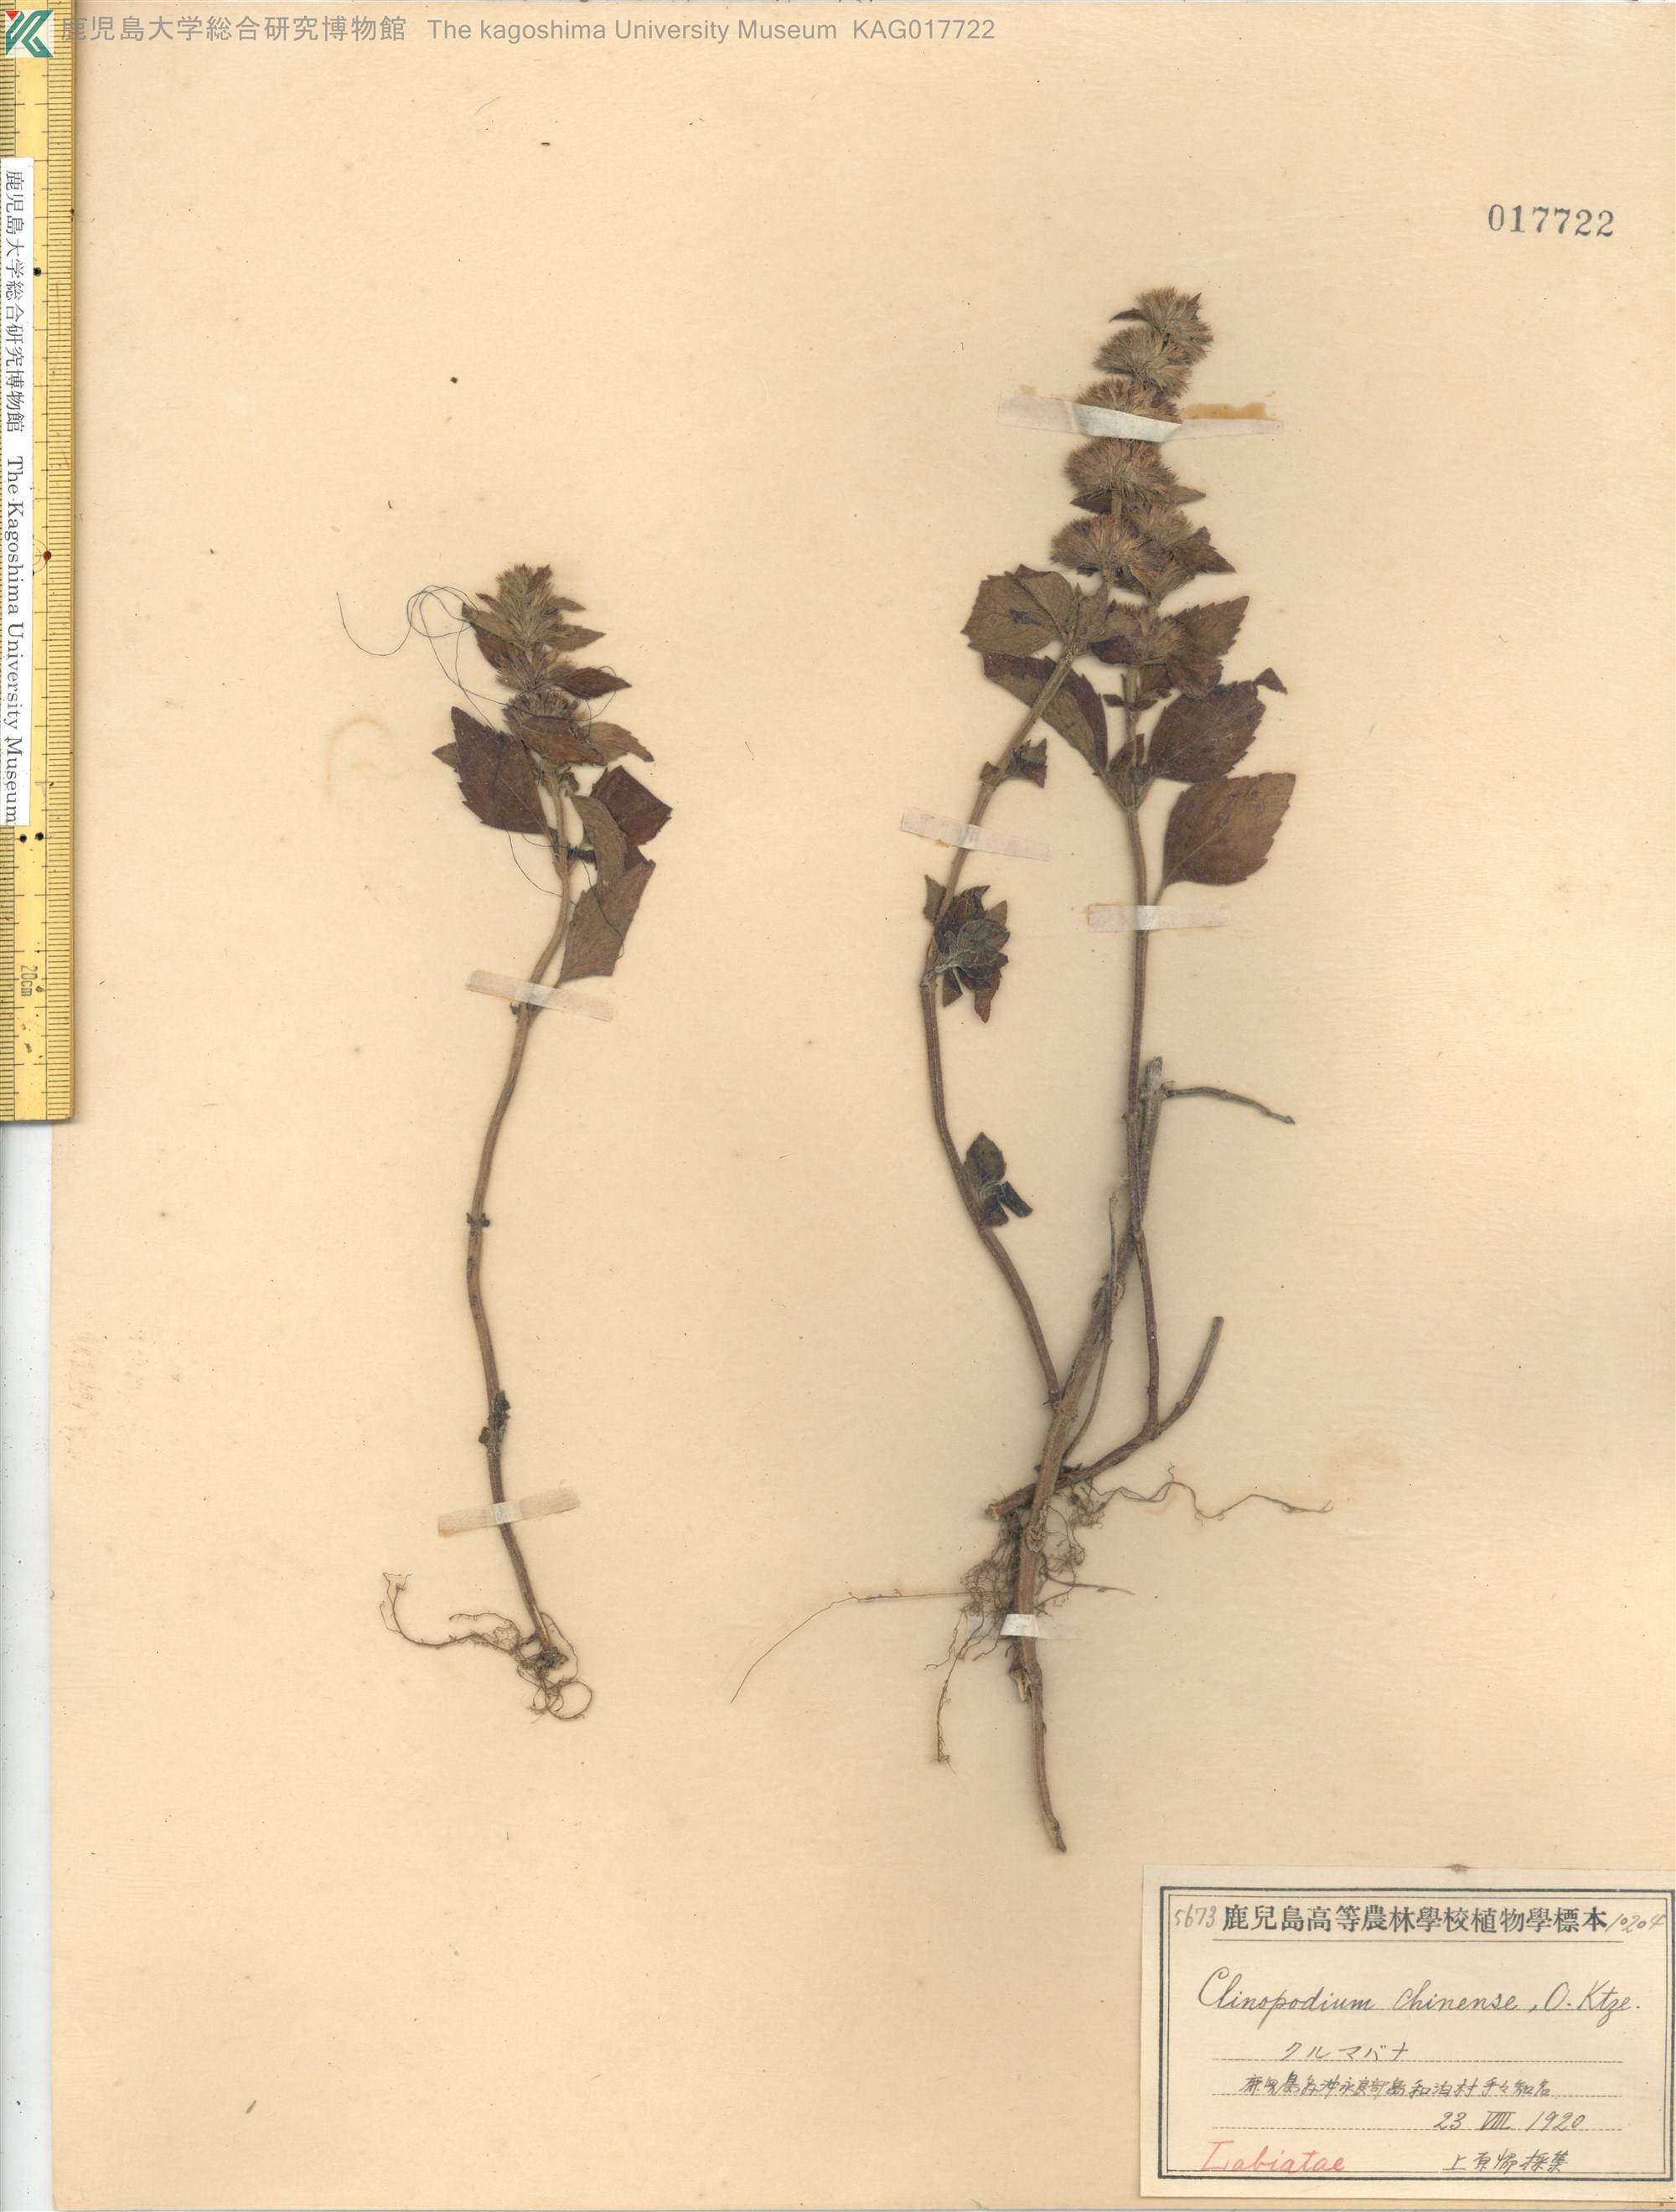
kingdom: Plantae
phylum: Tracheophyta
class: Magnoliopsida
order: Lamiales
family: Lamiaceae
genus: Clinopodium
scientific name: Clinopodium chinense
